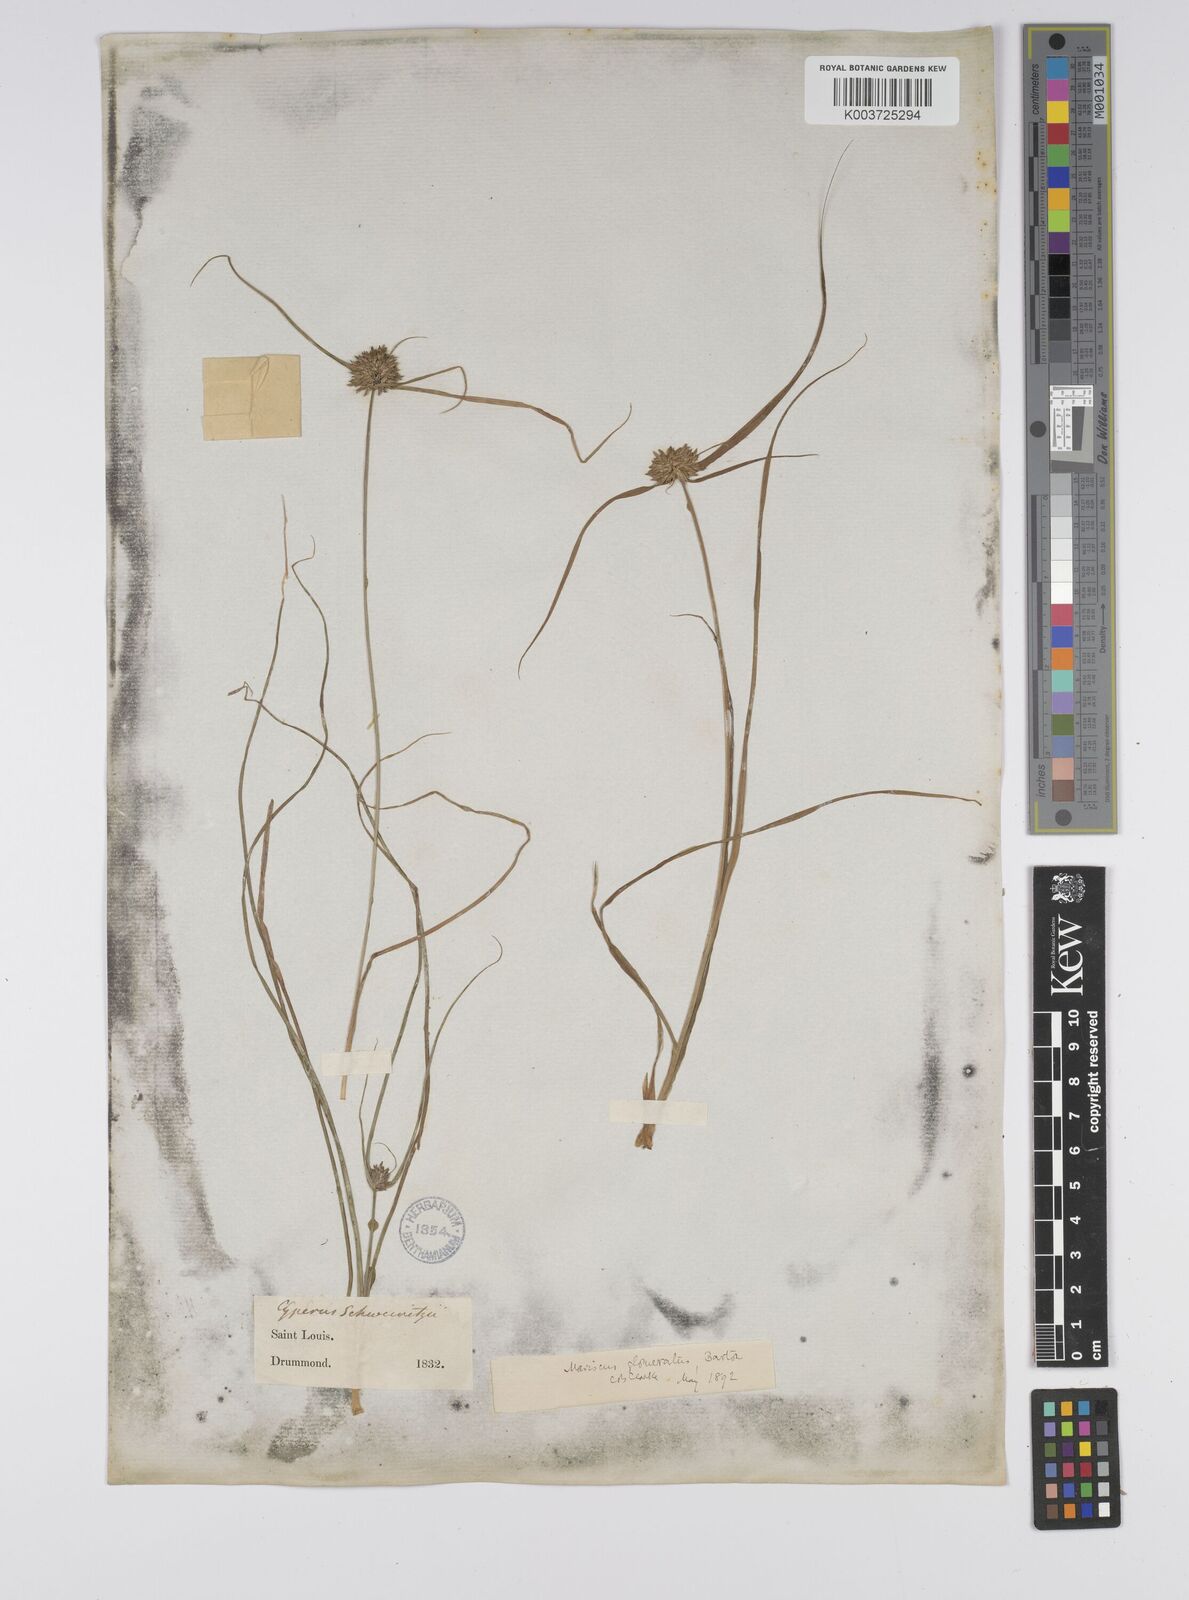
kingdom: Plantae
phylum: Tracheophyta
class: Liliopsida
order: Poales
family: Cyperaceae
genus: Cyperus
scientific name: Cyperus lupulinus
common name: Great plains flatsedge
